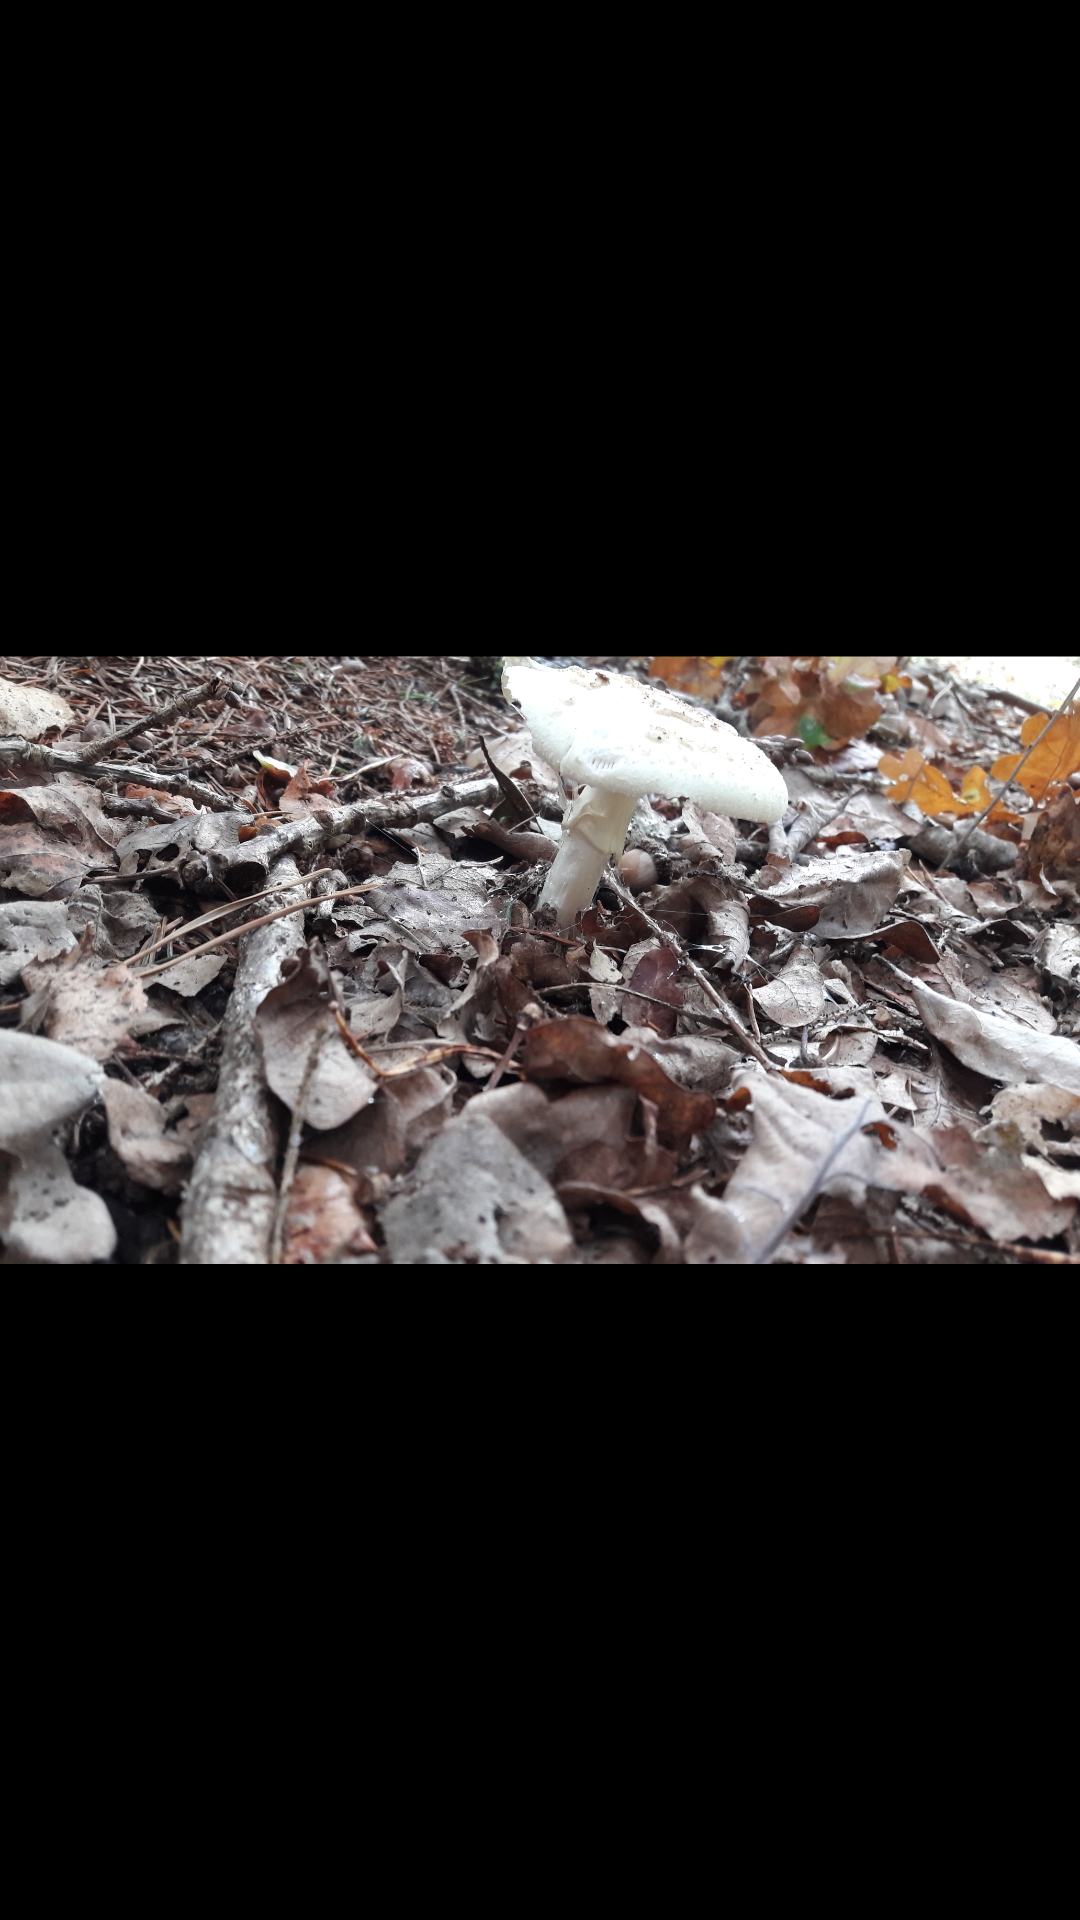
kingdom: Fungi
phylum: Basidiomycota
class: Agaricomycetes
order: Agaricales
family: Amanitaceae
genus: Amanita
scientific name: Amanita citrina
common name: False death-cap
